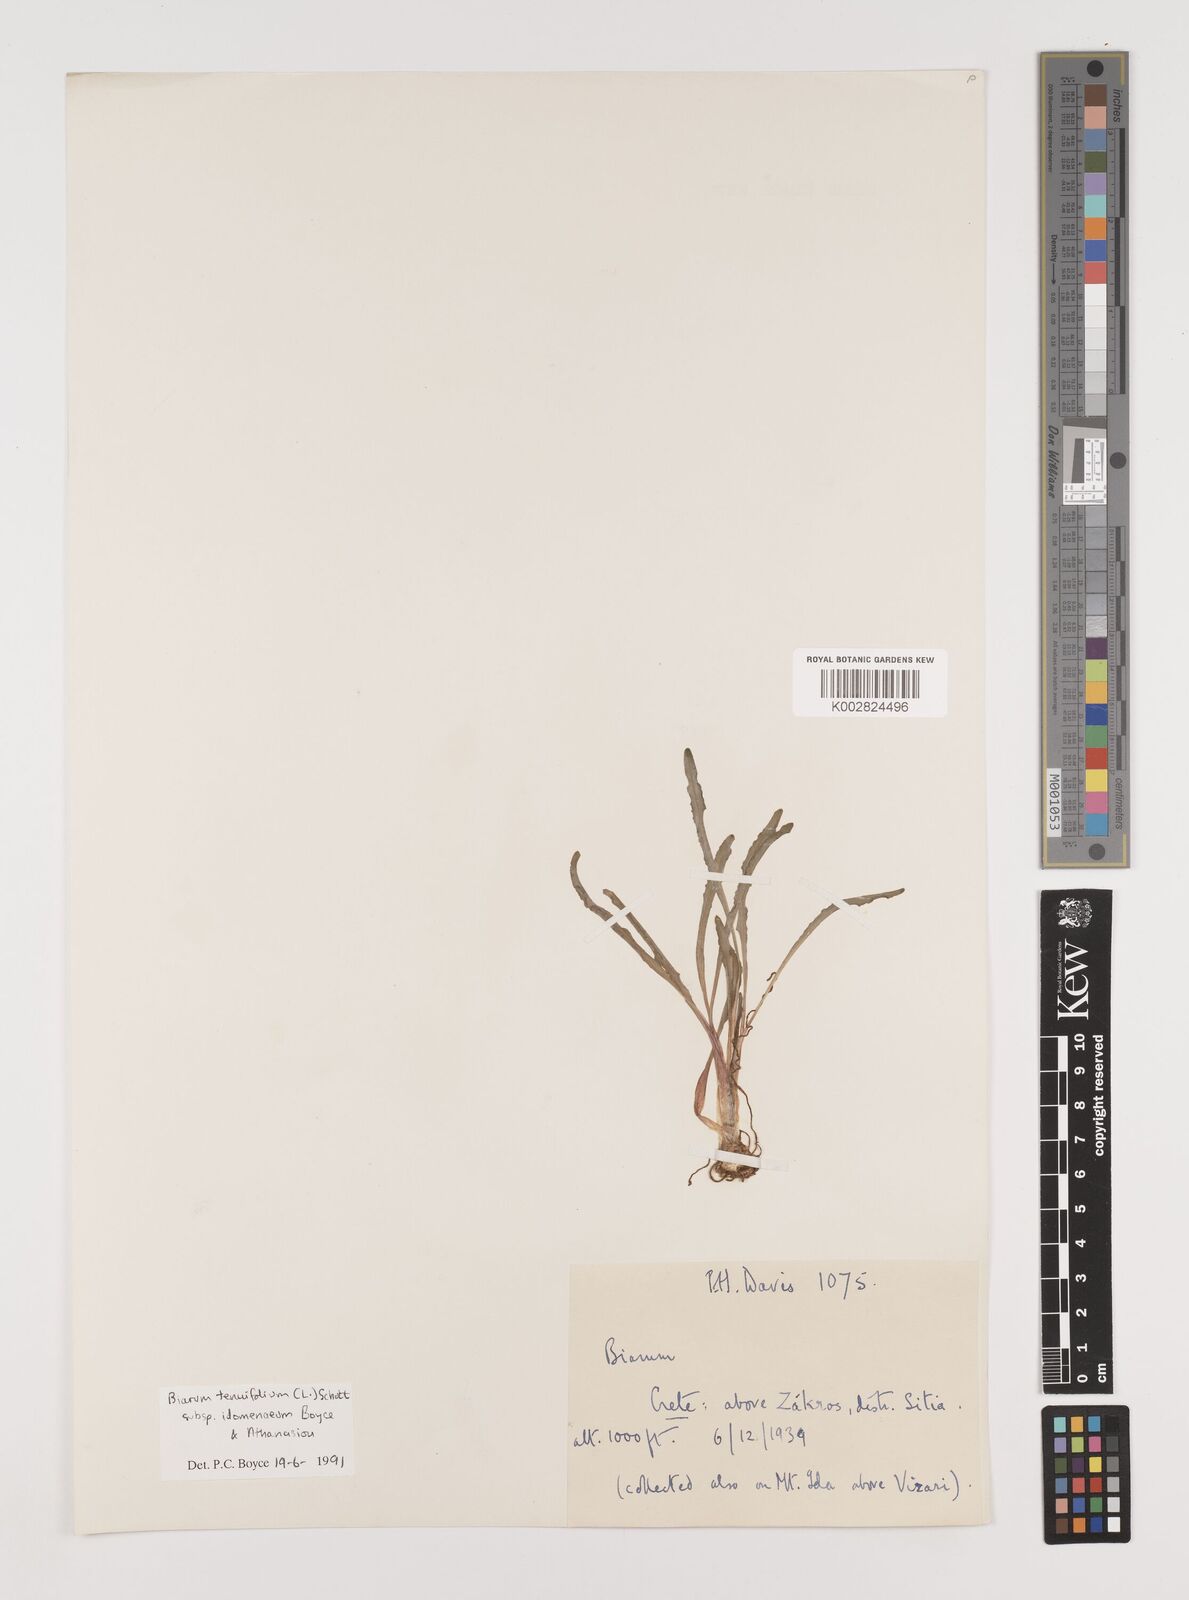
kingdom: Plantae
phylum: Tracheophyta
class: Liliopsida
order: Alismatales
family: Araceae
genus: Biarum
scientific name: Biarum tenuifolium
